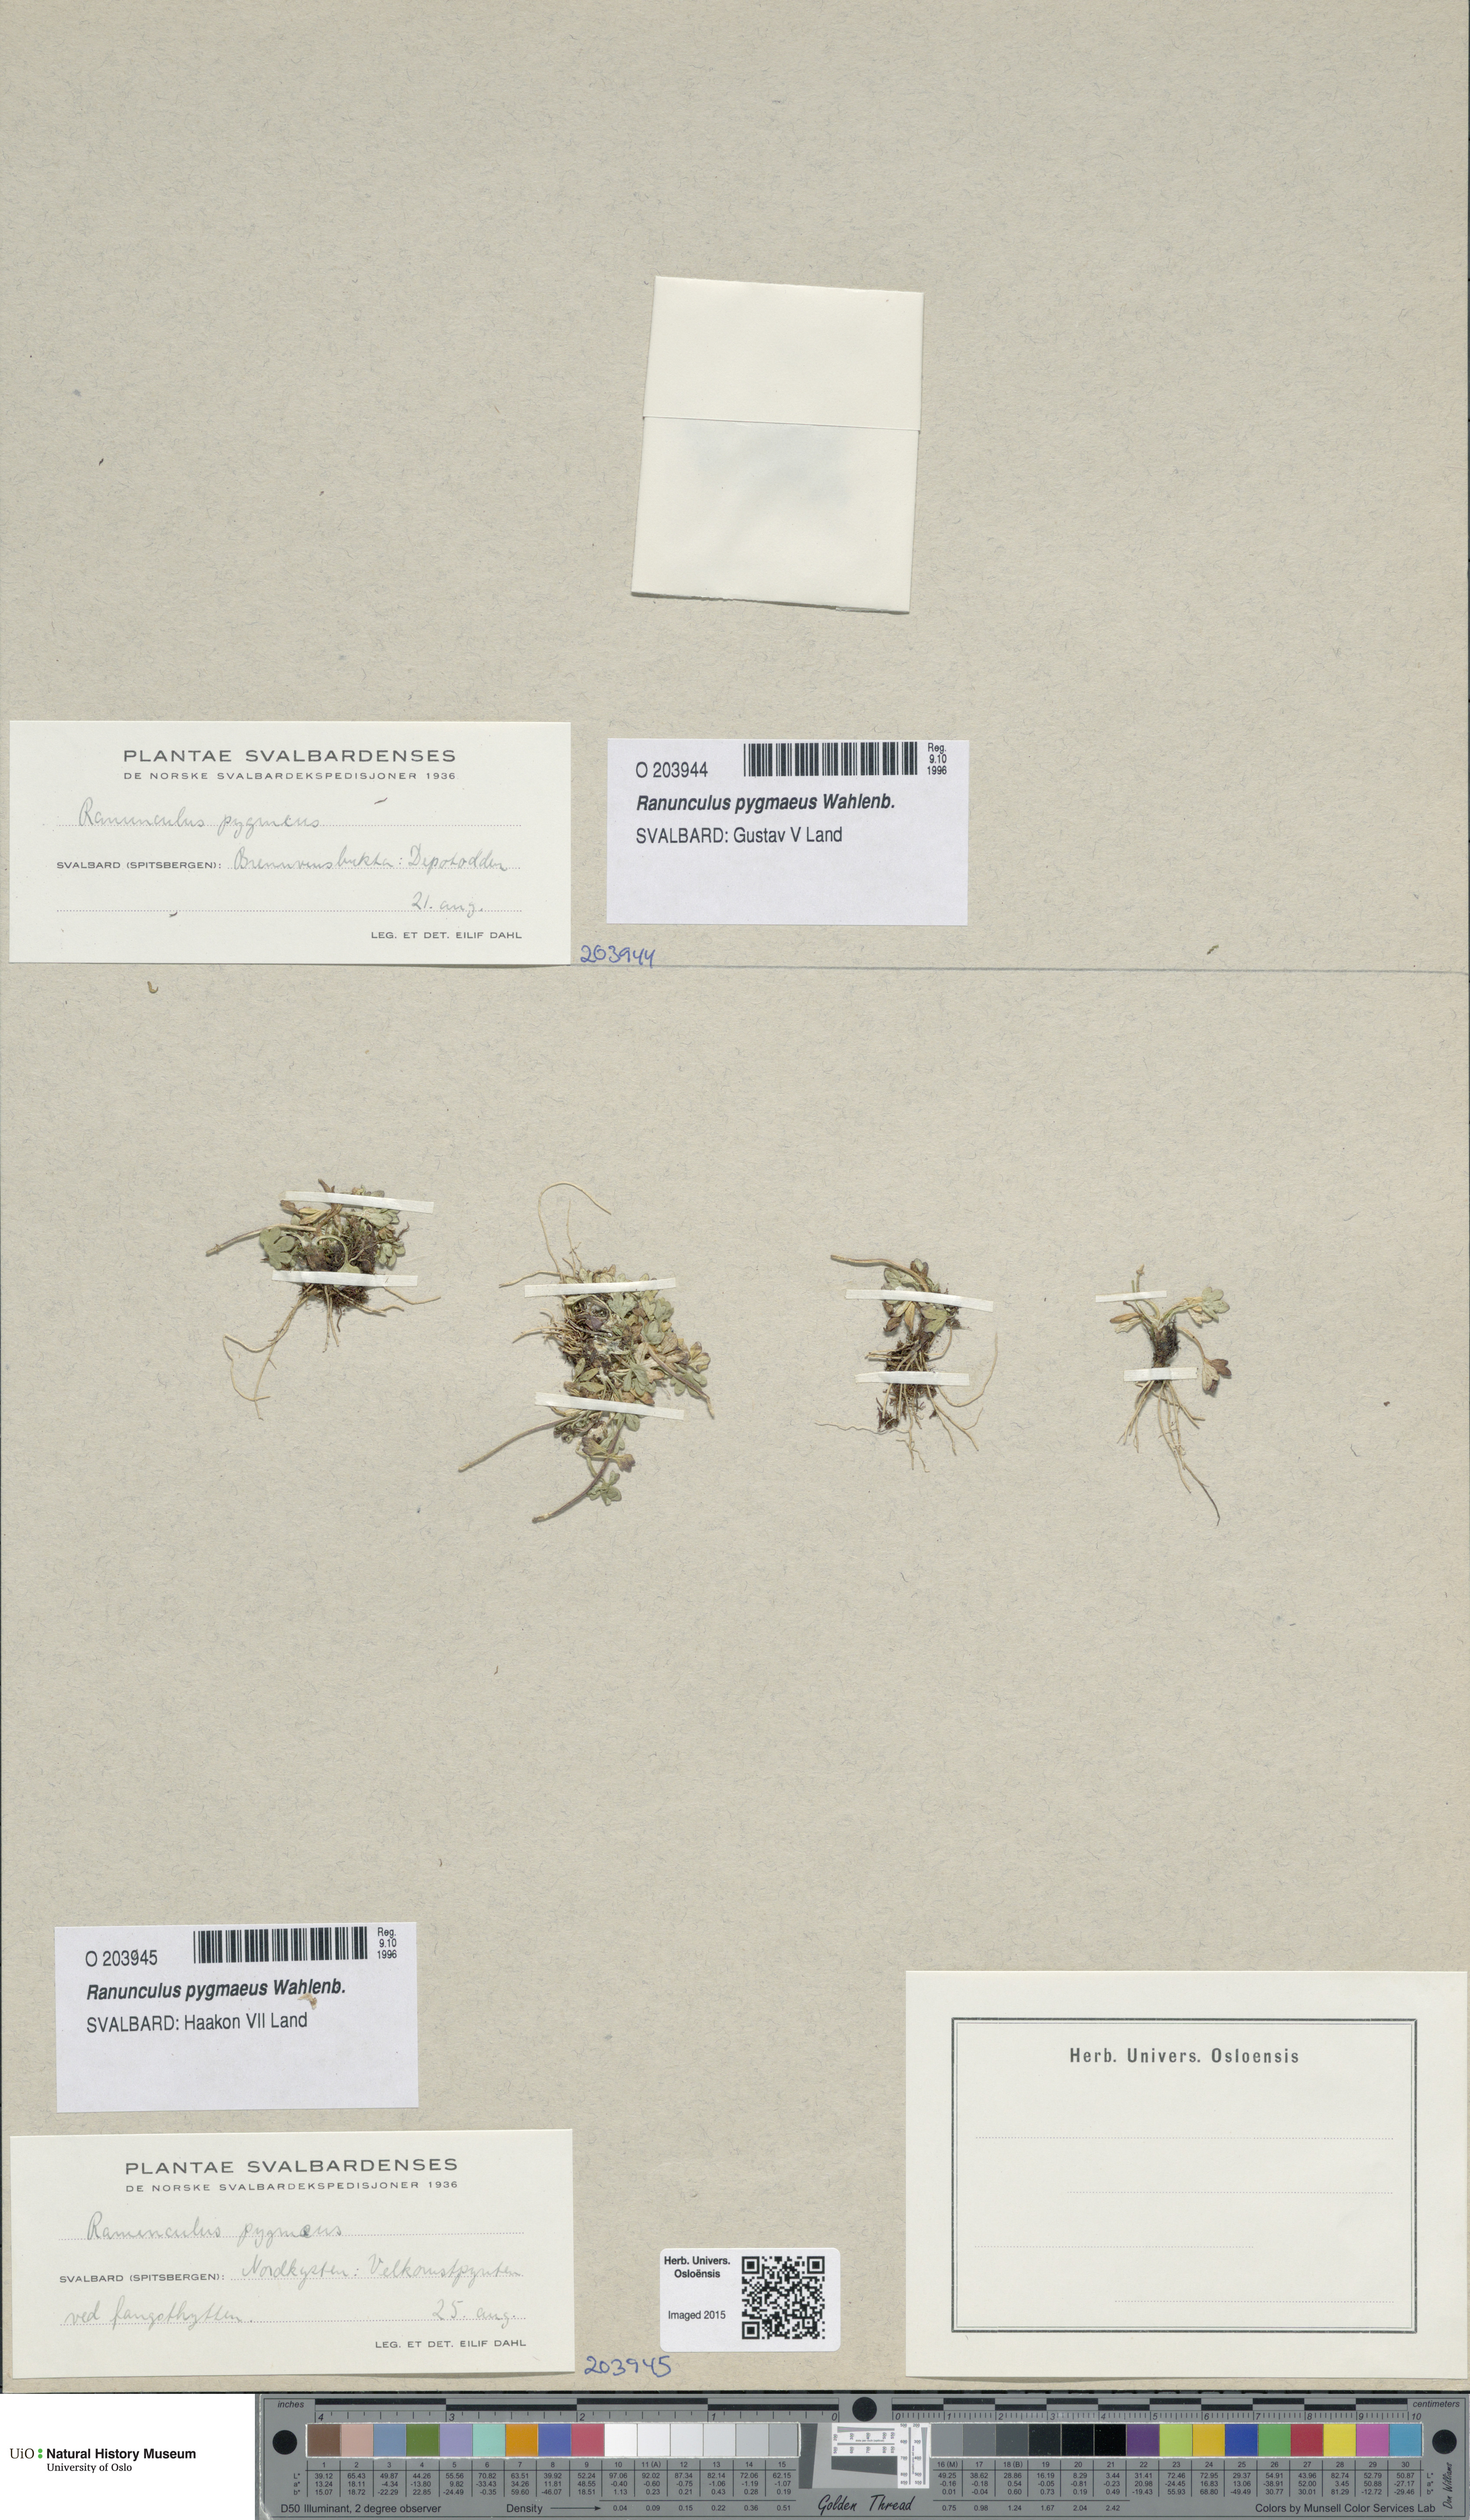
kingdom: Plantae
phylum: Tracheophyta
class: Magnoliopsida
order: Ranunculales
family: Ranunculaceae
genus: Ranunculus
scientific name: Ranunculus pygmaeus
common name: Dwarf buttercup
